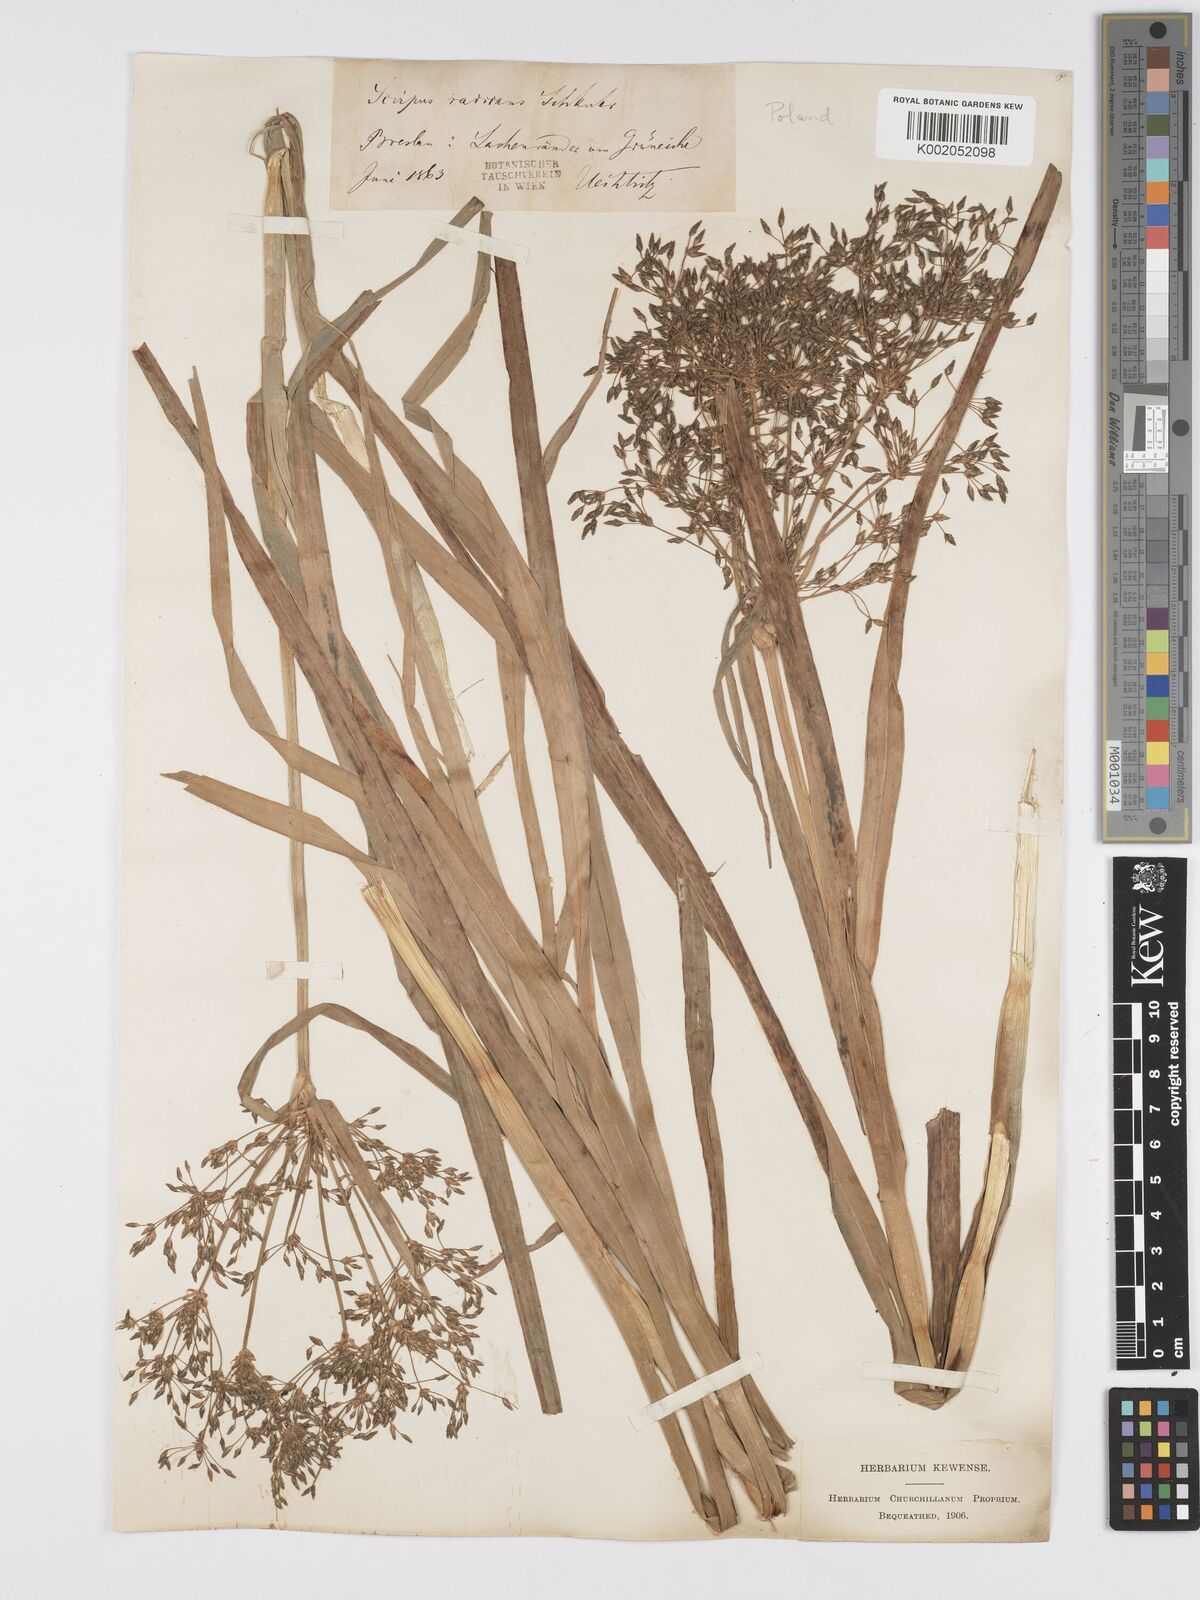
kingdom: Plantae
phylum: Tracheophyta
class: Liliopsida
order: Poales
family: Cyperaceae
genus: Scirpus
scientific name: Scirpus radicans
